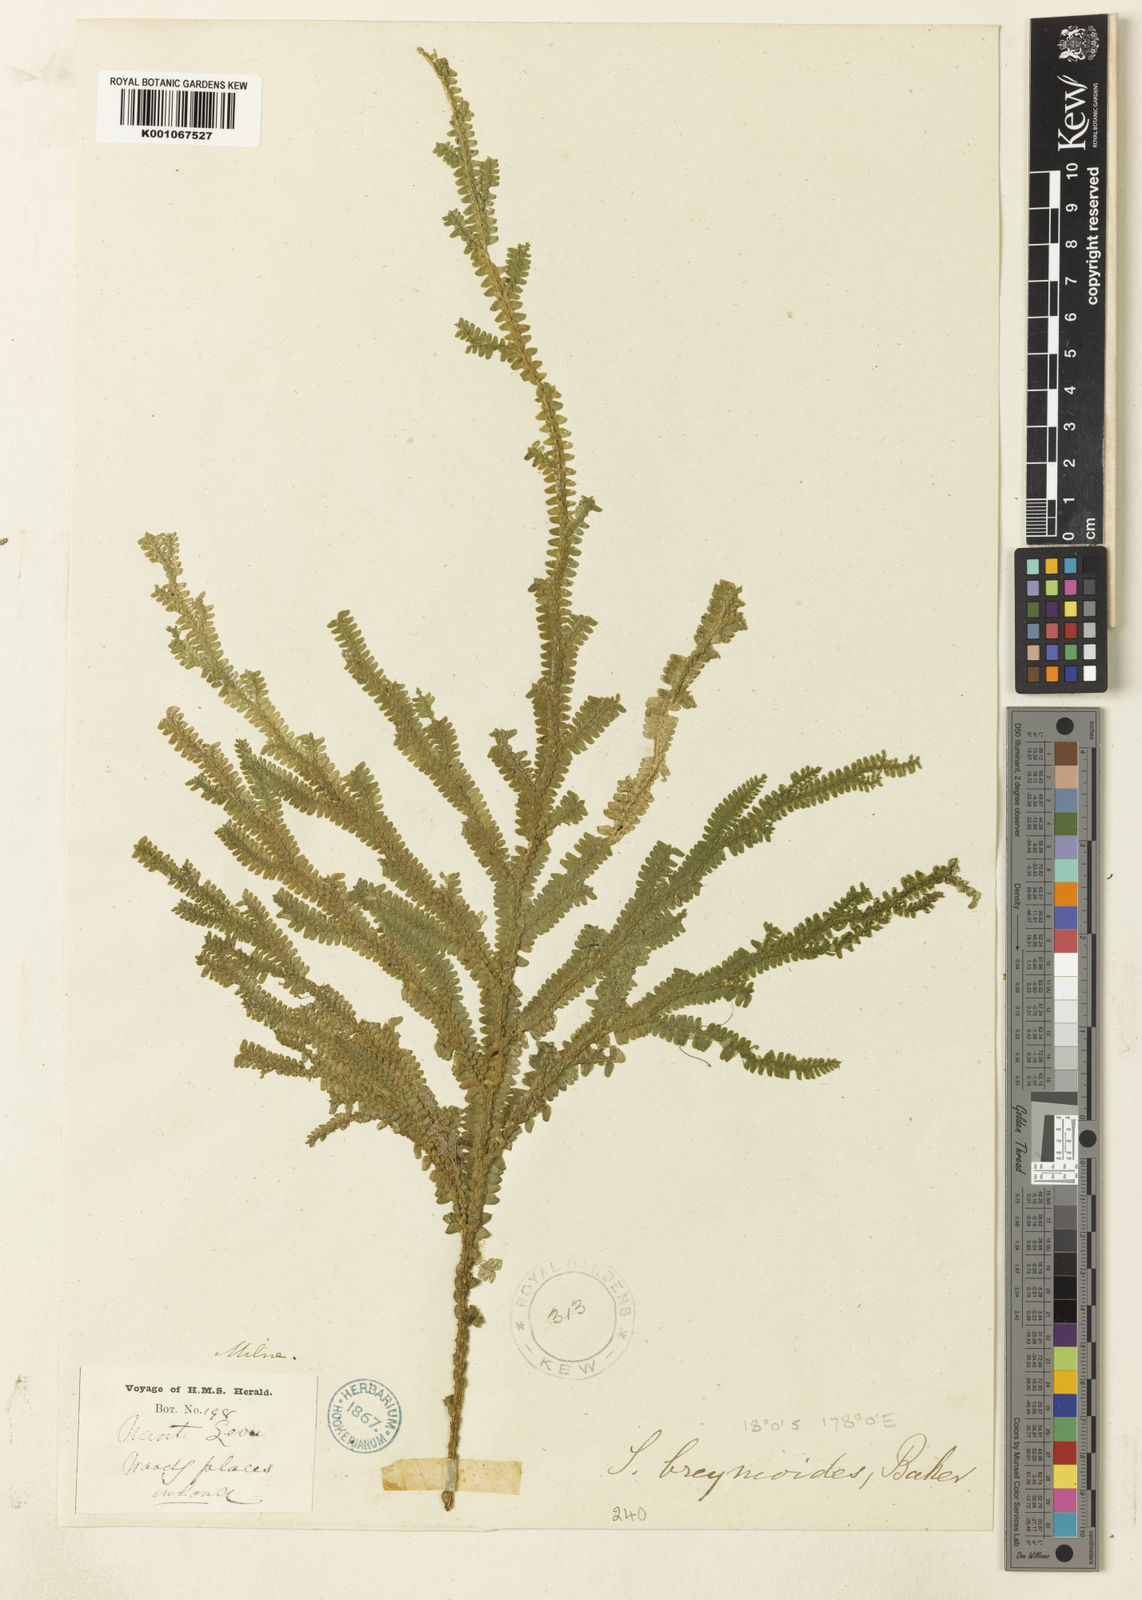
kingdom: Plantae
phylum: Tracheophyta
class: Lycopodiopsida
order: Selaginellales
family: Selaginellaceae
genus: Selaginella
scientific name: Selaginella breynioides
